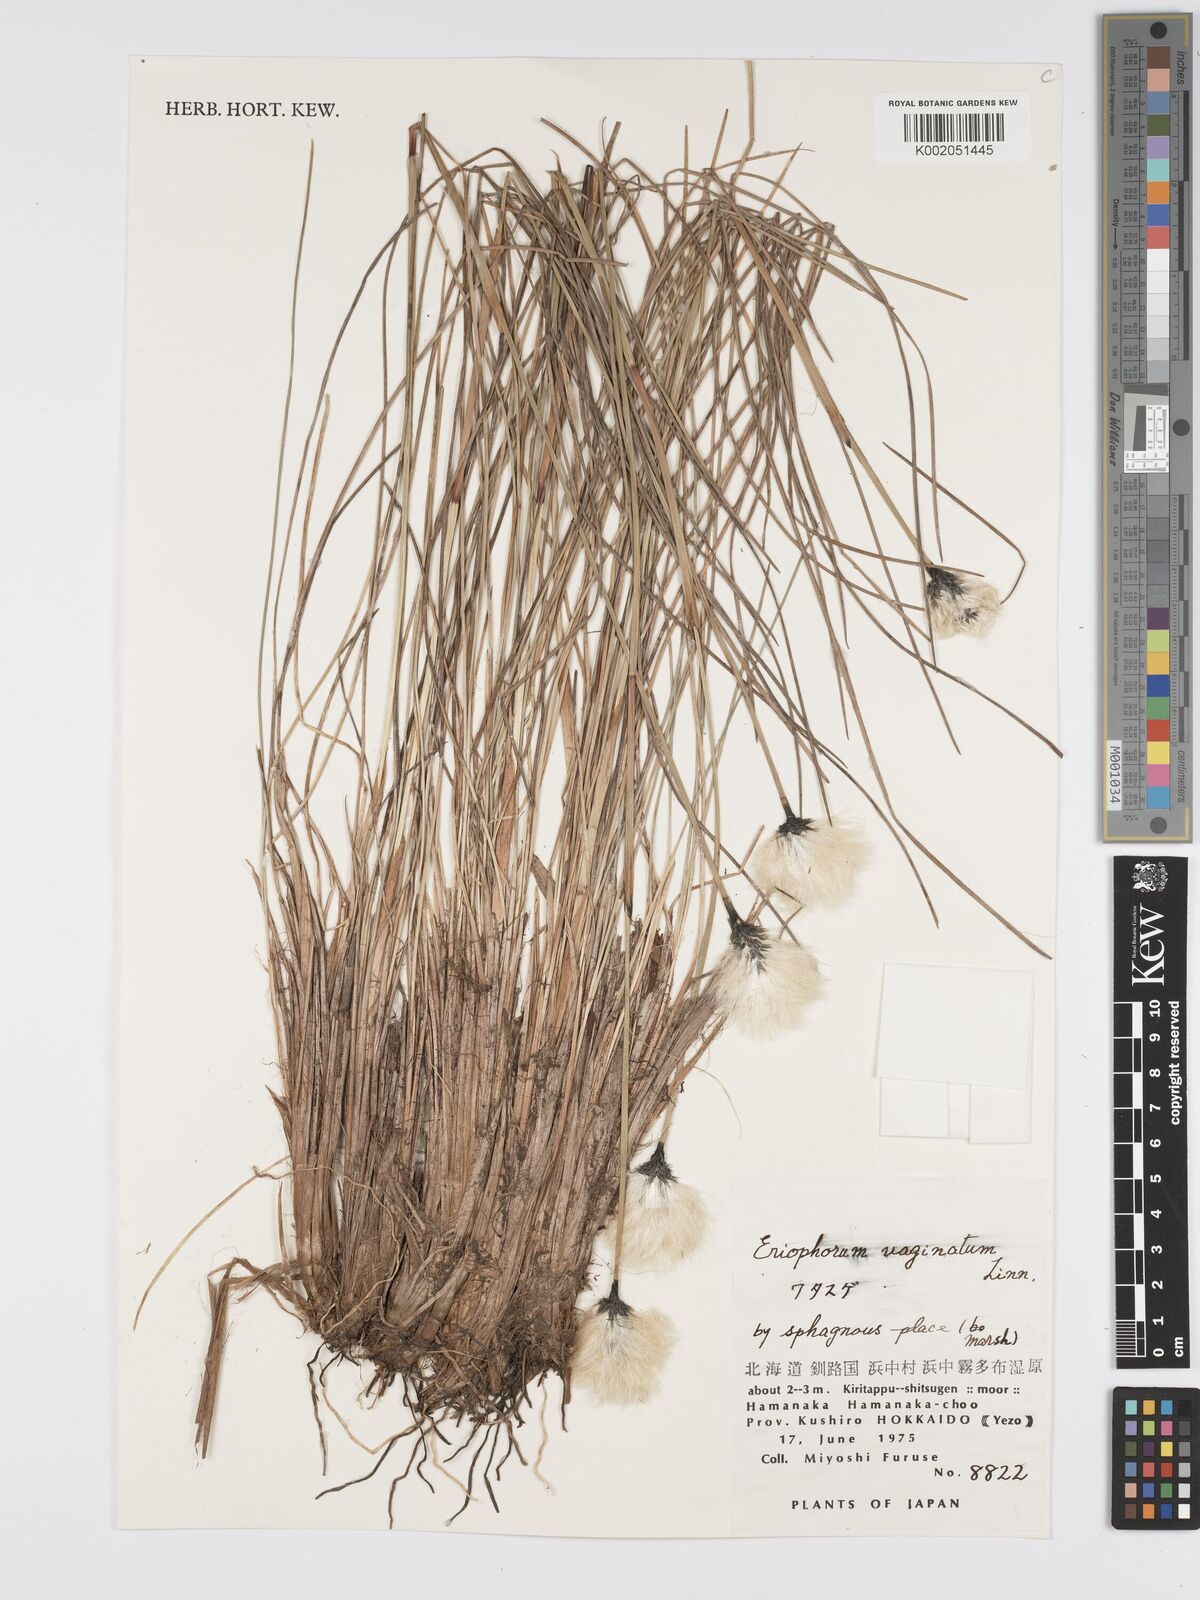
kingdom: Plantae
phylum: Tracheophyta
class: Liliopsida
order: Poales
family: Cyperaceae
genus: Eriophorum
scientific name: Eriophorum vaginatum
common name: Hare's-tail cottongrass
